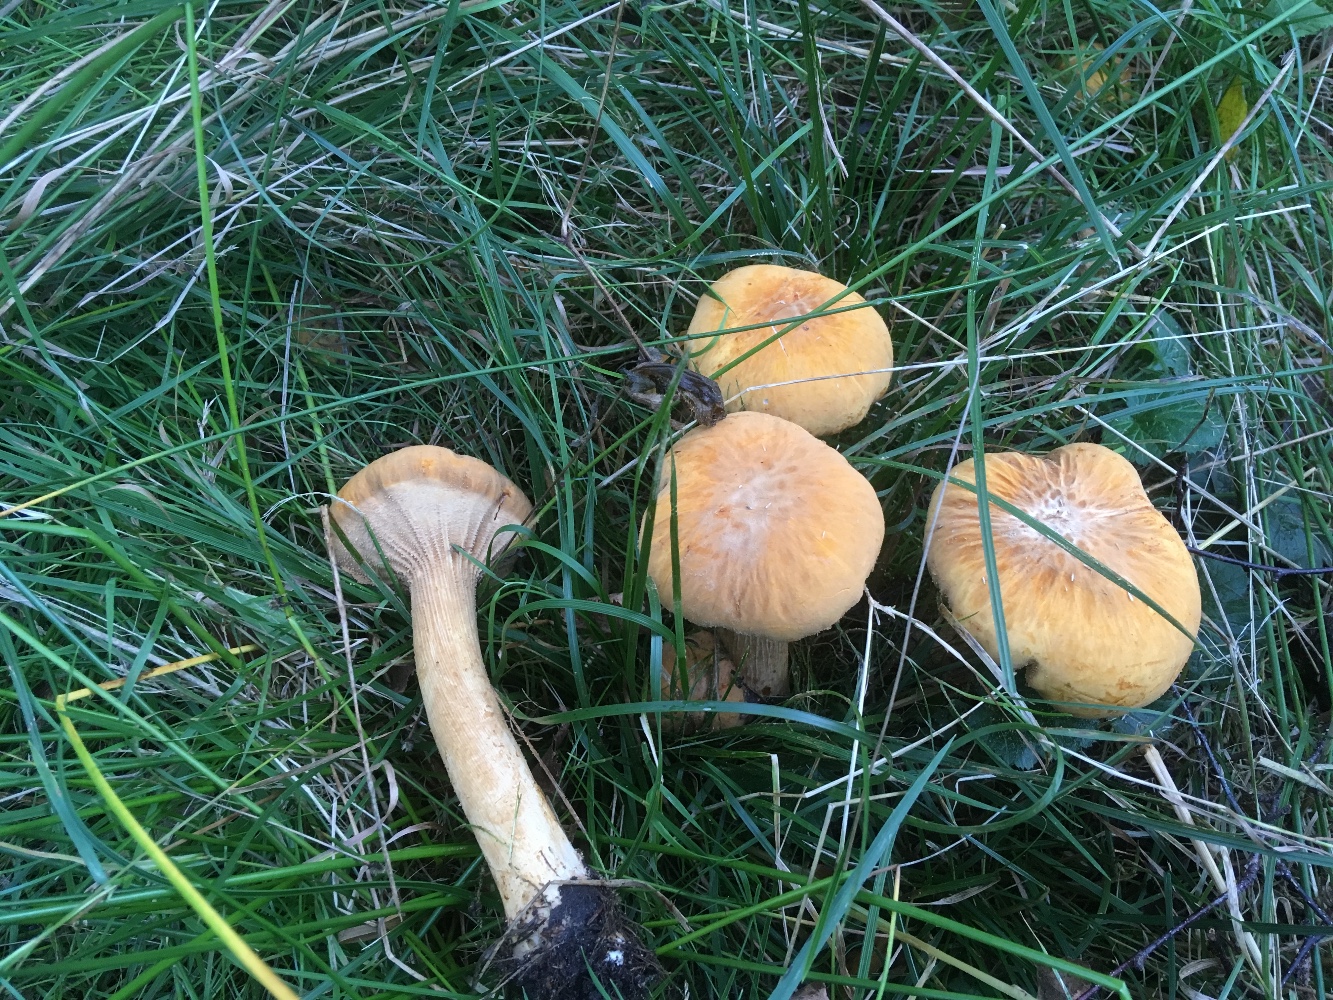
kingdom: Fungi
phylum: Basidiomycota
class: Agaricomycetes
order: Agaricales
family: Tricholomataceae
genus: Phaeolepiota
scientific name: Phaeolepiota aurea
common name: gyldenhat
